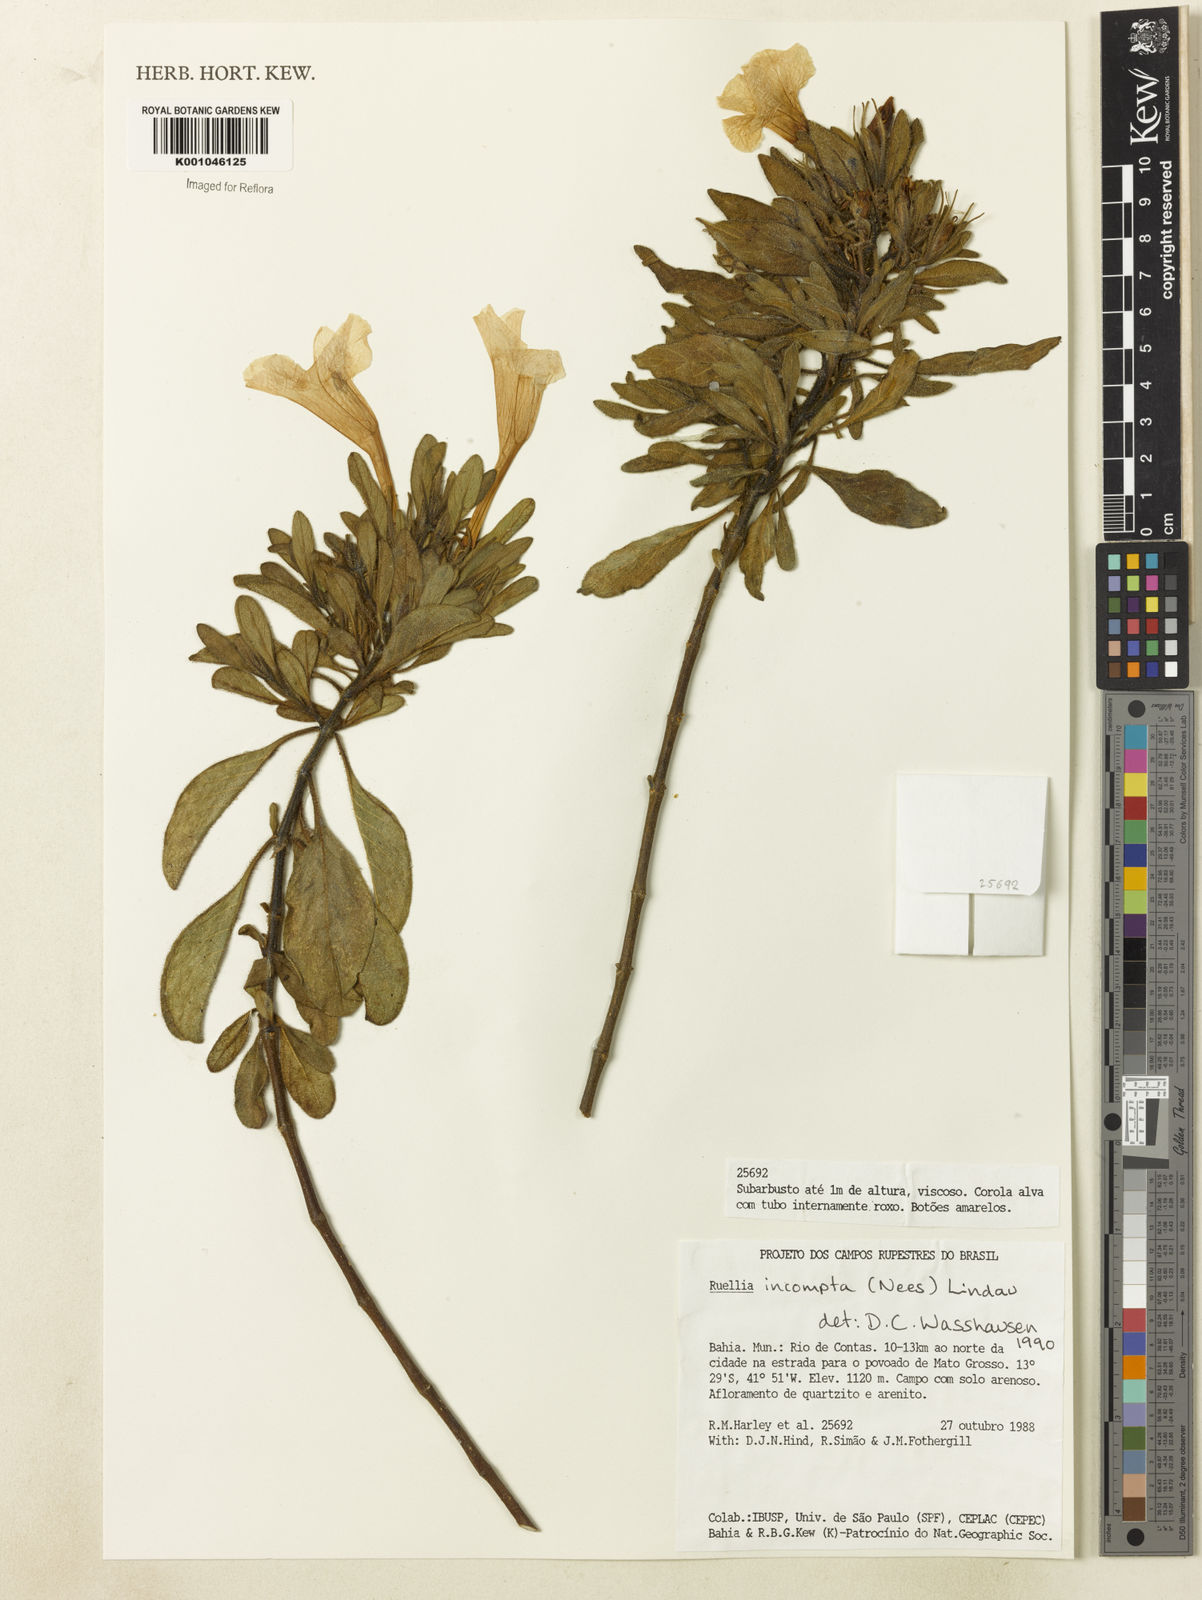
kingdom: Plantae
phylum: Tracheophyta
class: Magnoliopsida
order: Lamiales
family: Acanthaceae
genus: Ruellia
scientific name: Ruellia
